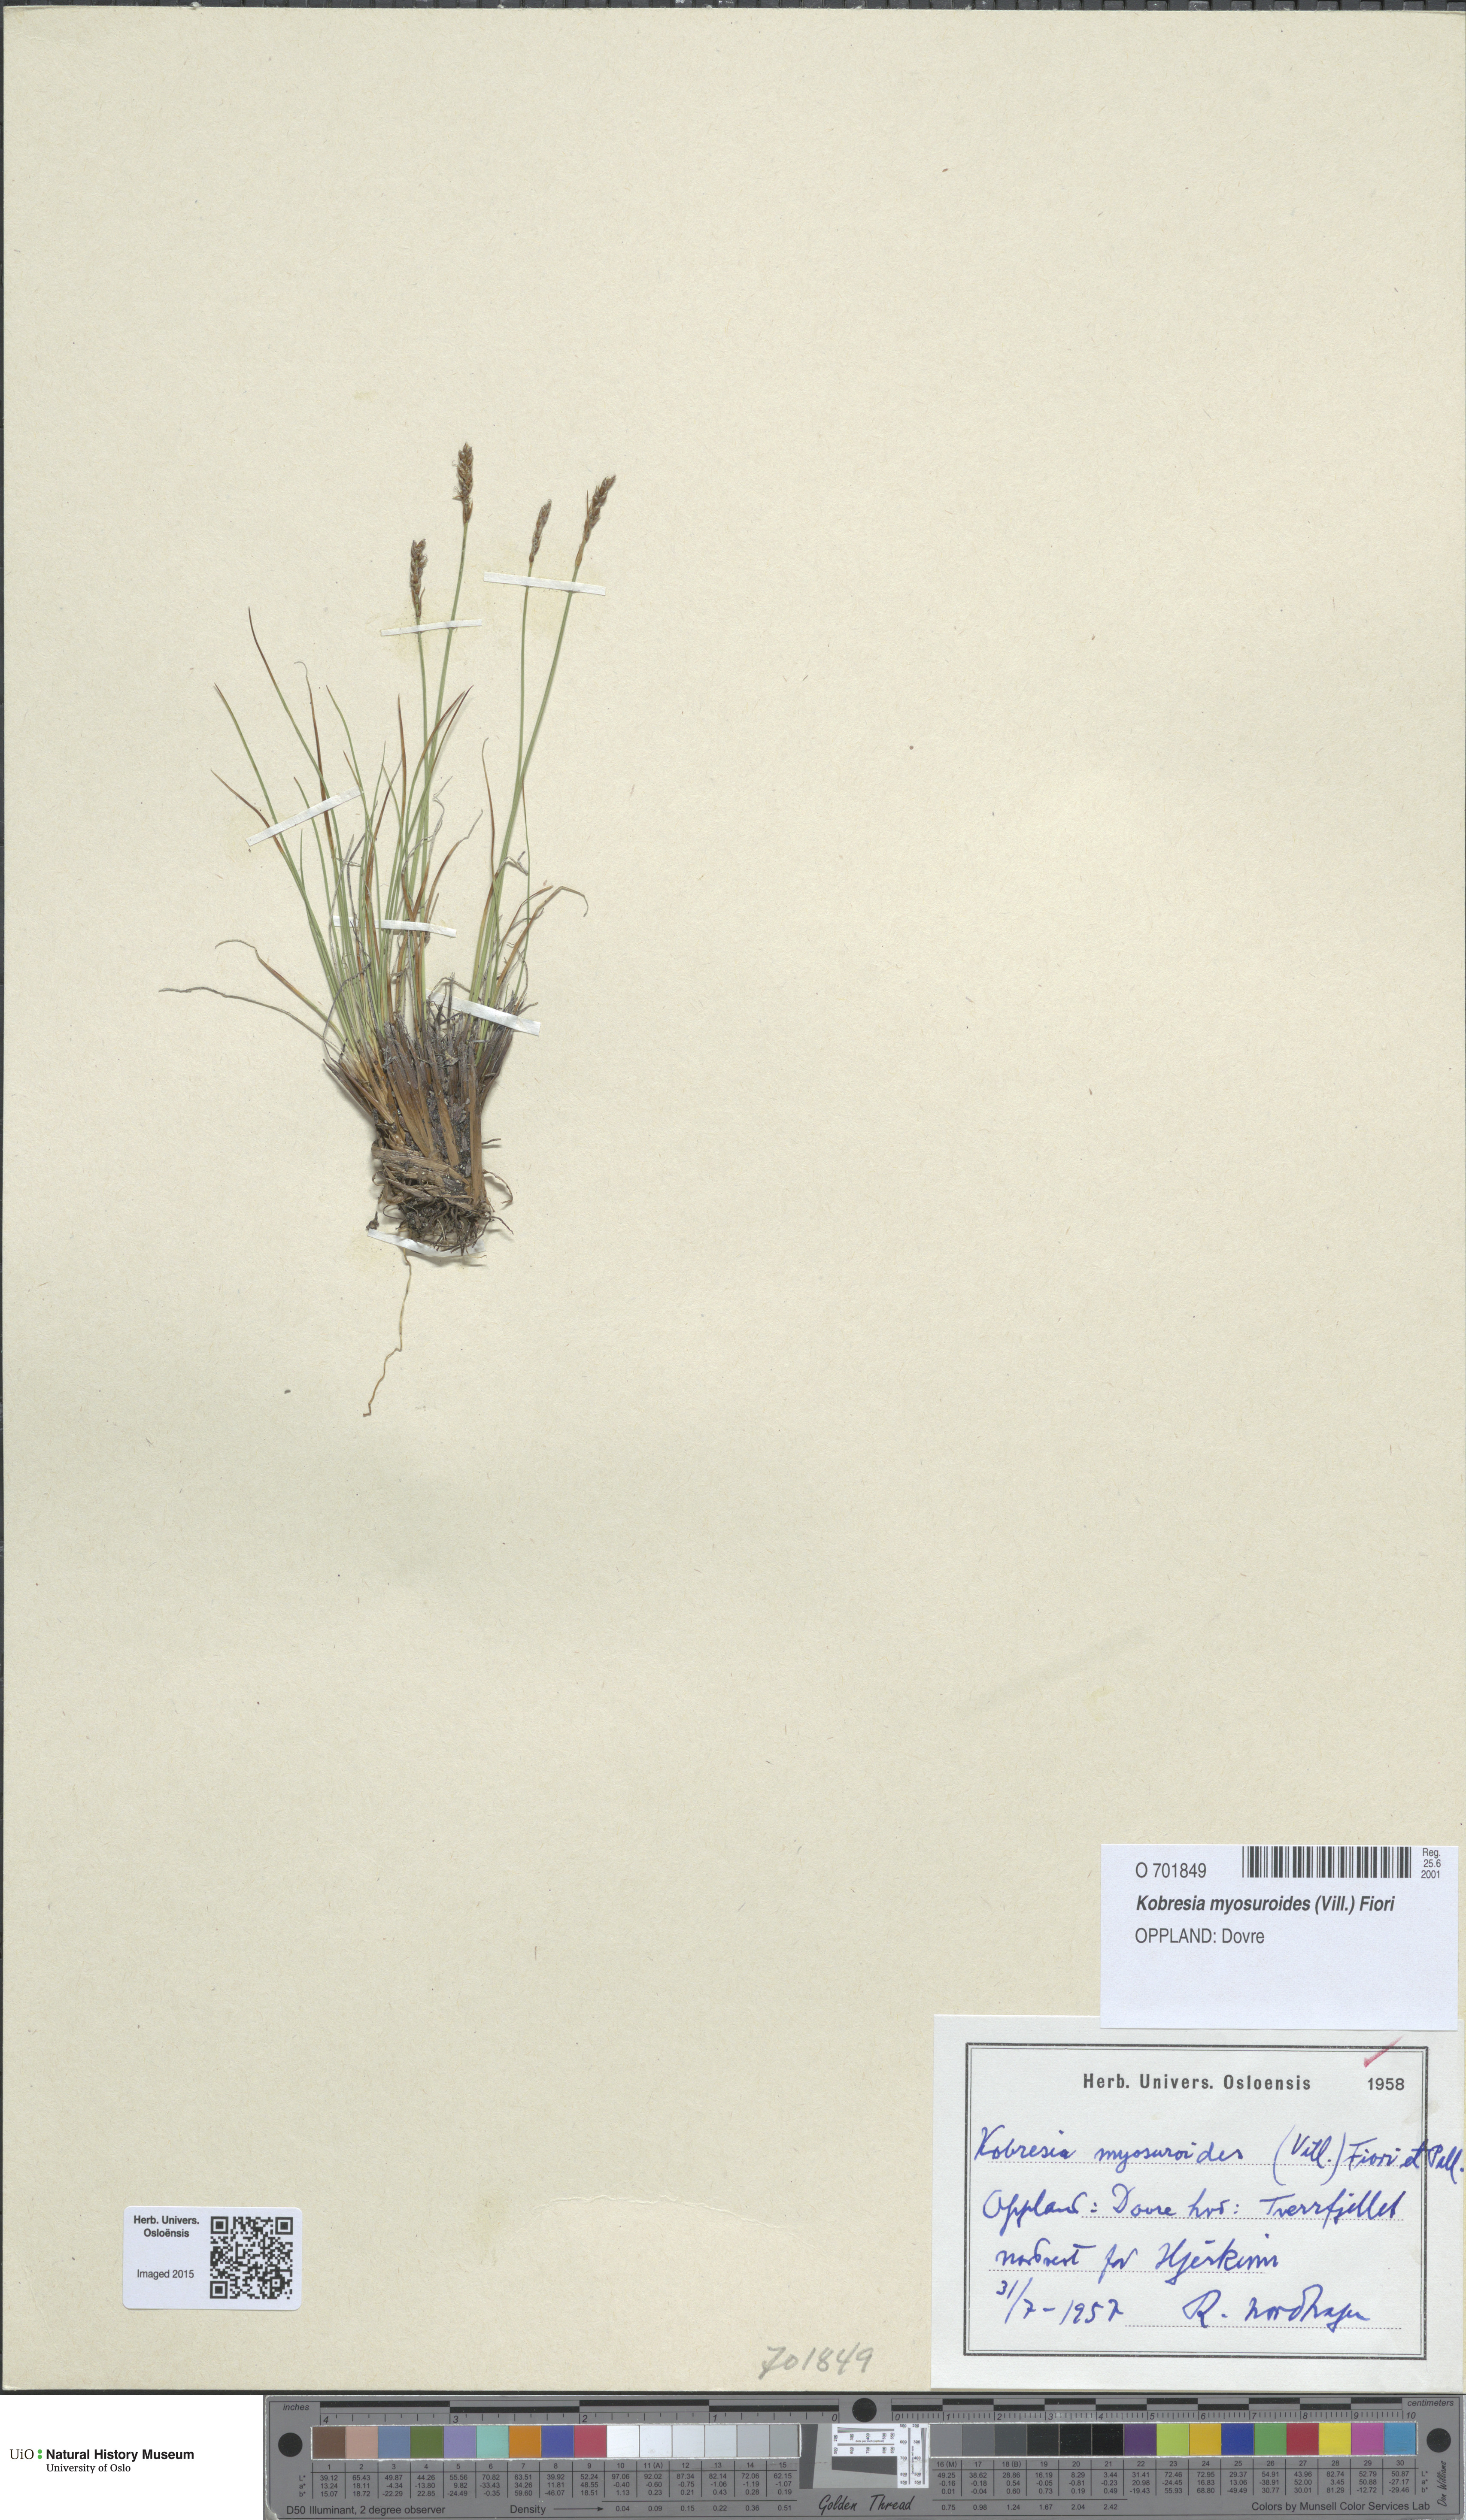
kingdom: Plantae
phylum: Tracheophyta
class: Liliopsida
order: Poales
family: Cyperaceae
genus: Carex
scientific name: Carex myosuroides
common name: Bellard's bog sedge
